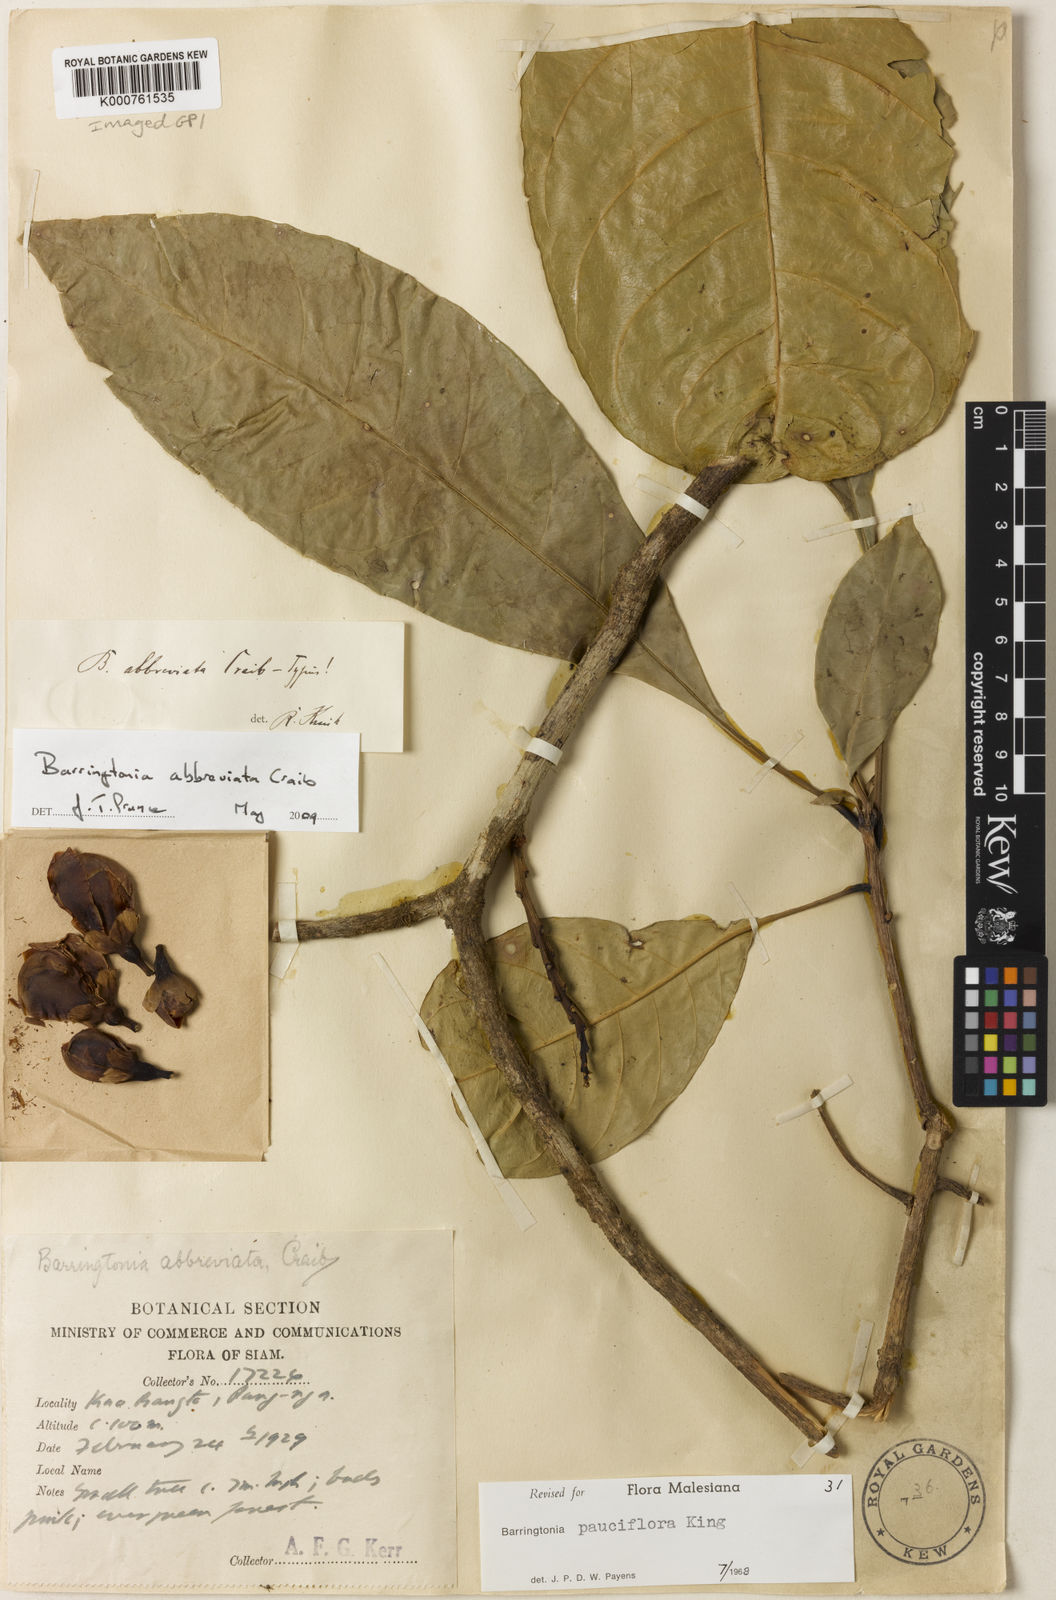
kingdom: Plantae
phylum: Tracheophyta
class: Magnoliopsida
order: Ericales
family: Lecythidaceae
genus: Barringtonia
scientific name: Barringtonia pauciflora
